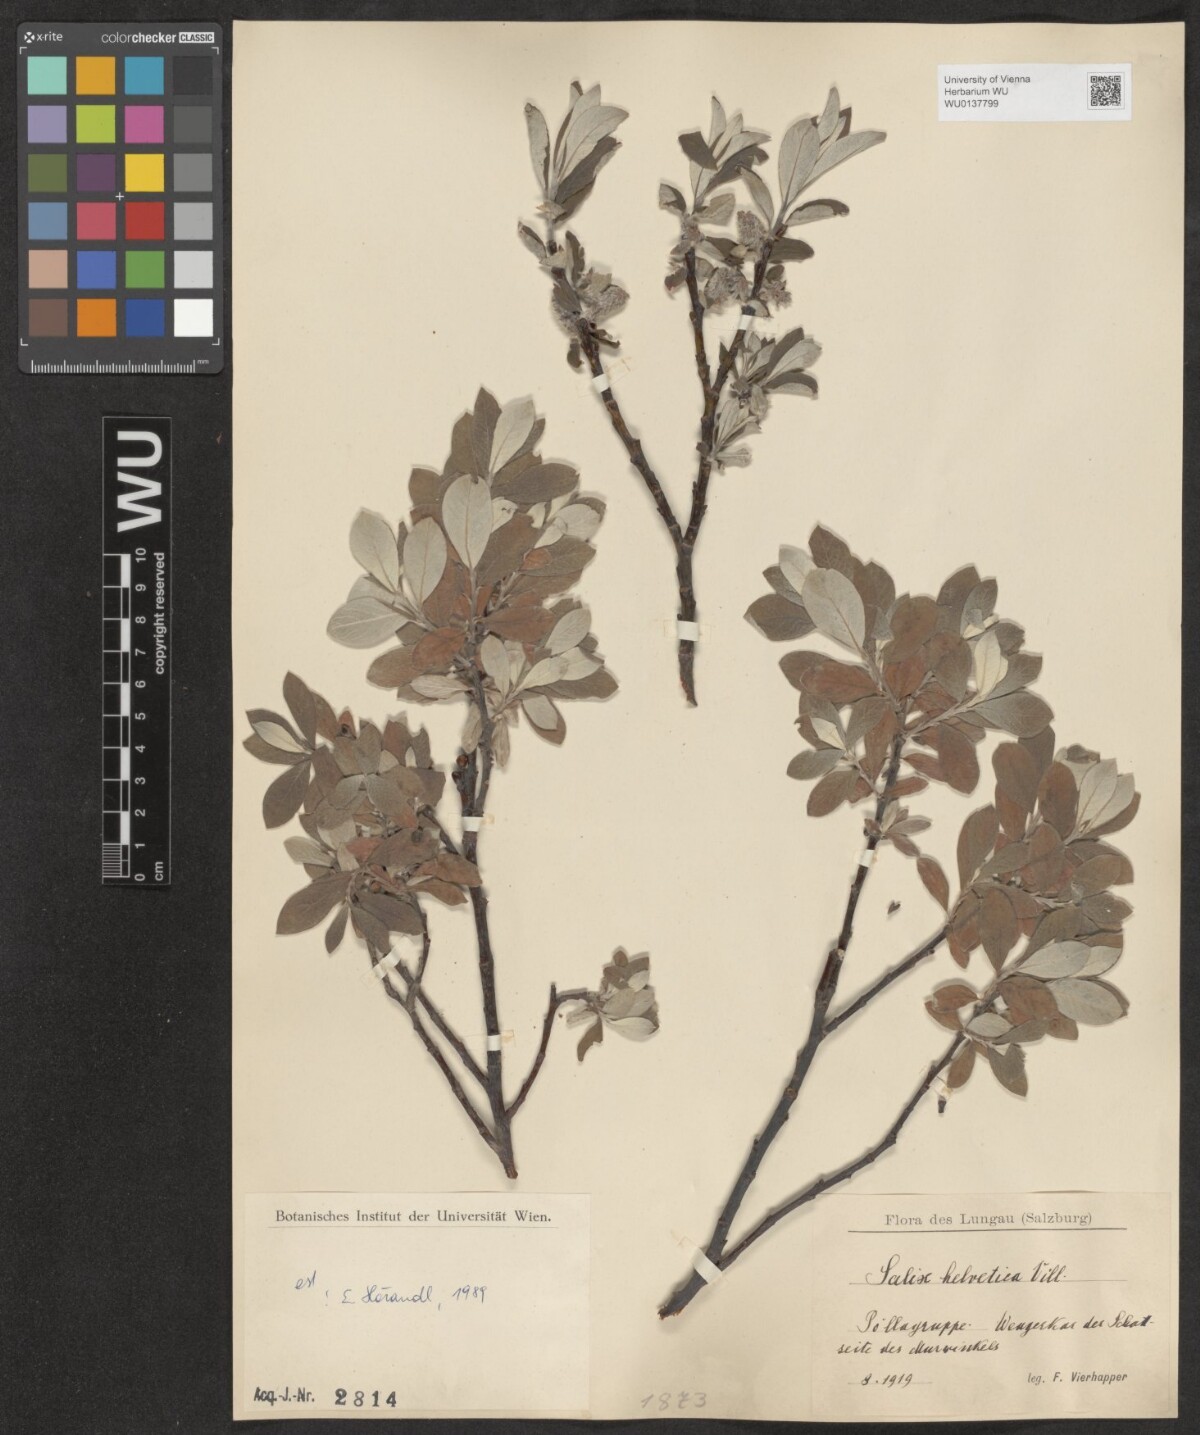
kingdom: Plantae
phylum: Tracheophyta
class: Magnoliopsida
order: Malpighiales
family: Salicaceae
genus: Salix
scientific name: Salix helvetica
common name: Swiss willow
